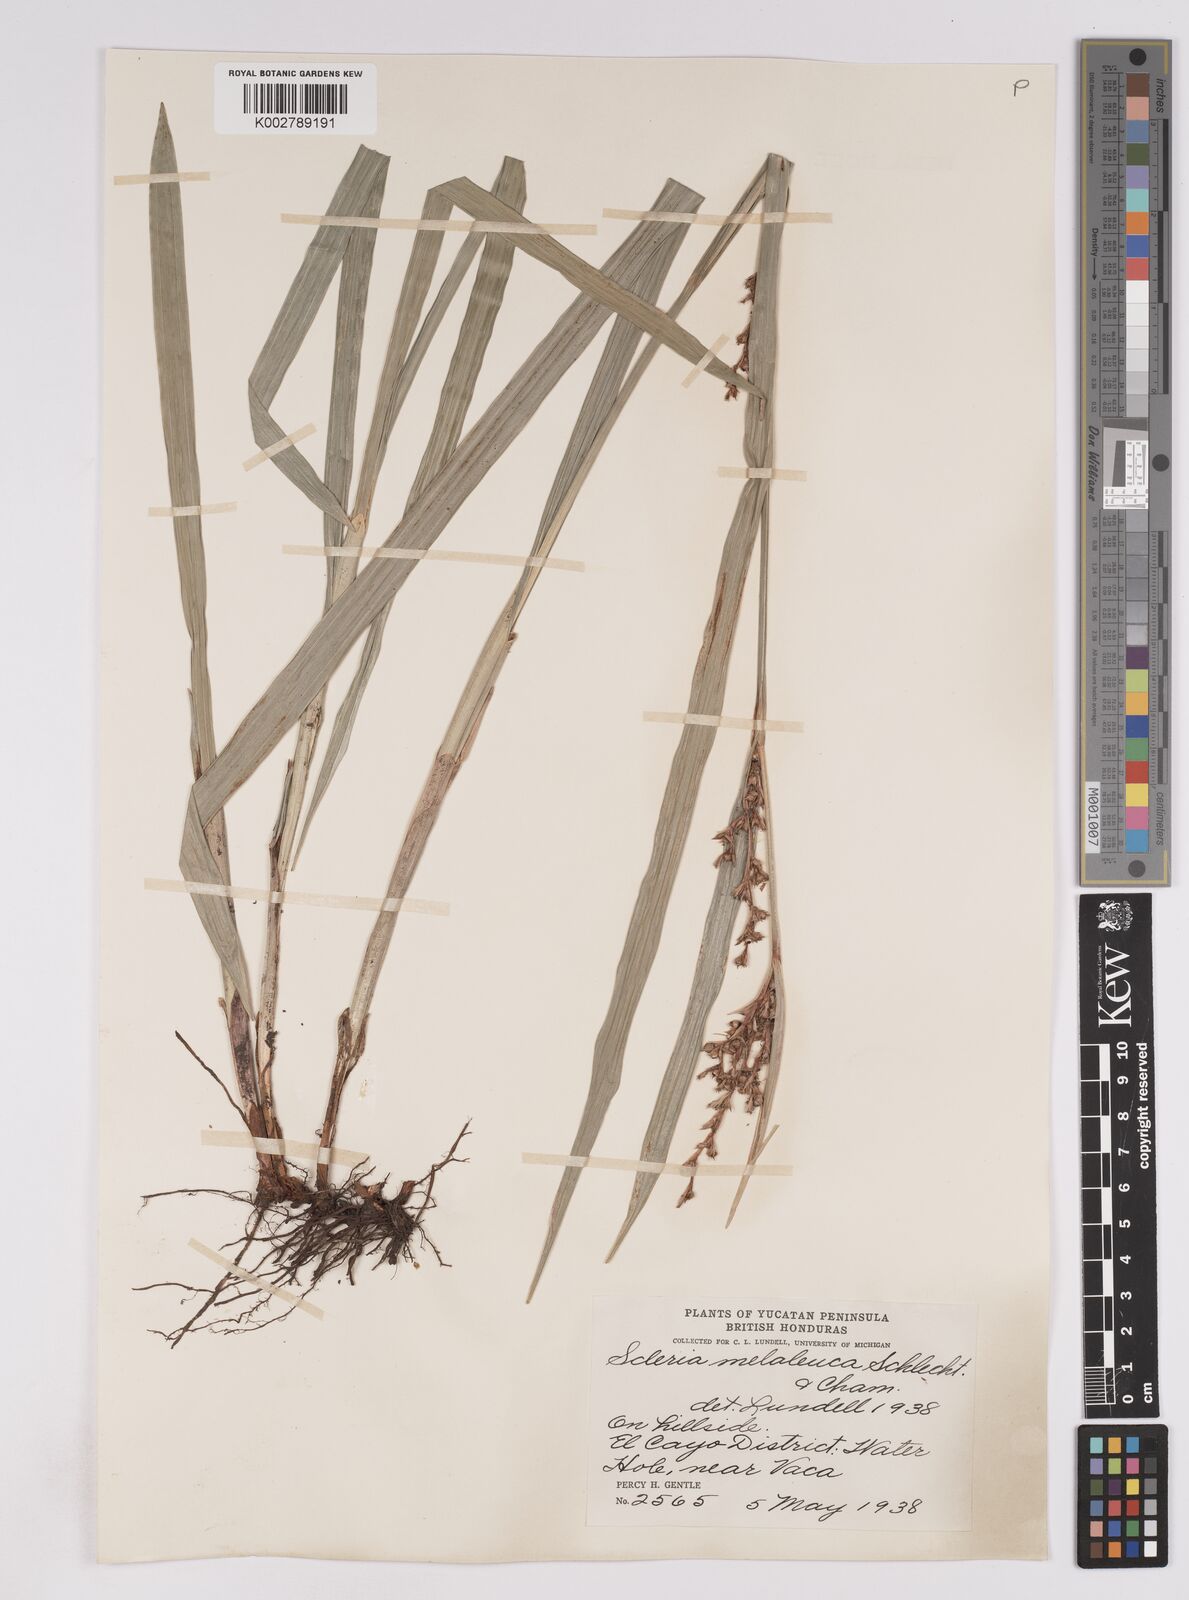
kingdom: Plantae
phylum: Tracheophyta
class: Liliopsida
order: Poales
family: Cyperaceae
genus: Scleria
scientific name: Scleria gaertneri
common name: Cortadera blanca
